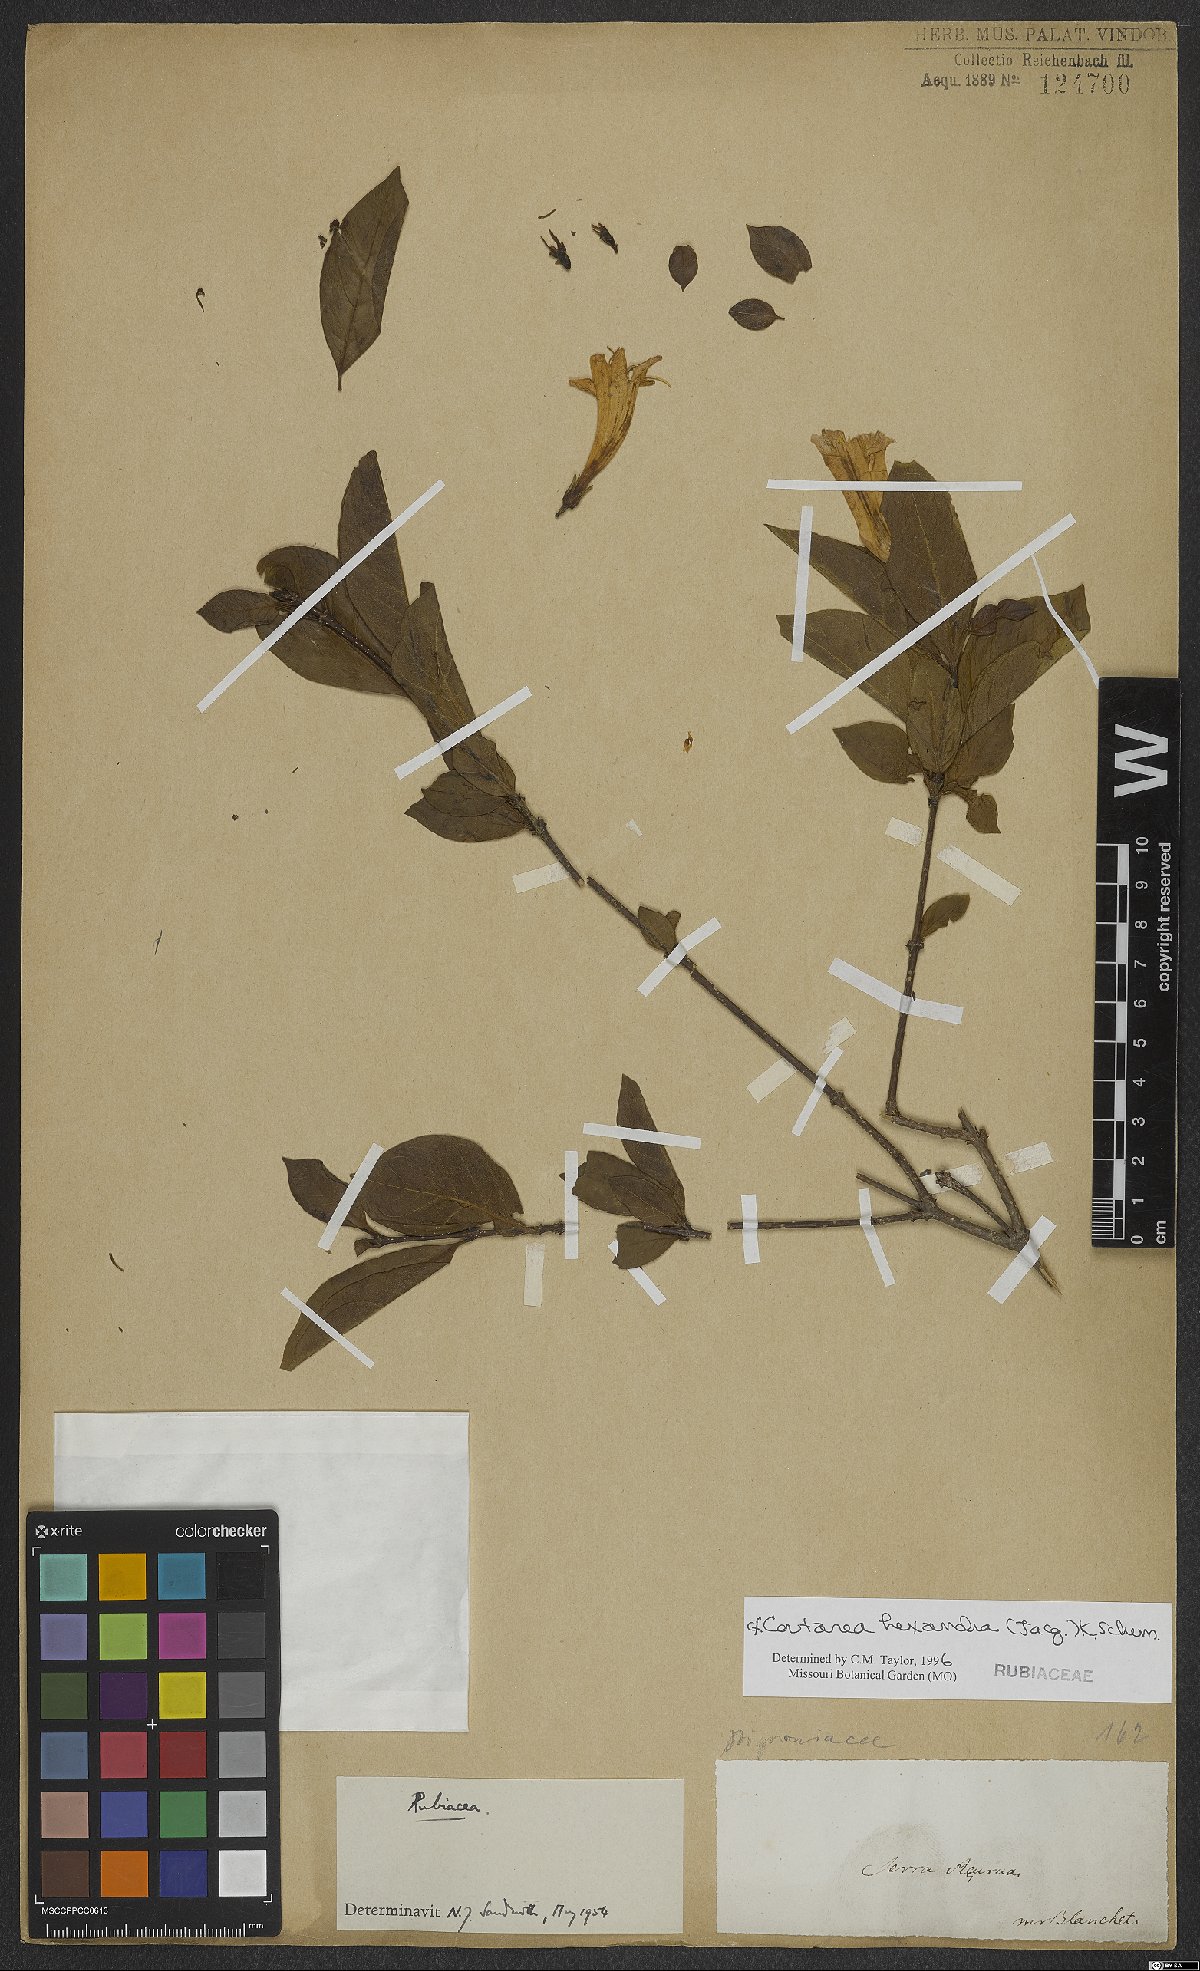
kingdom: Plantae
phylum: Tracheophyta
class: Magnoliopsida
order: Gentianales
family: Rubiaceae
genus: Coutarea
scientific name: Coutarea hexandra
